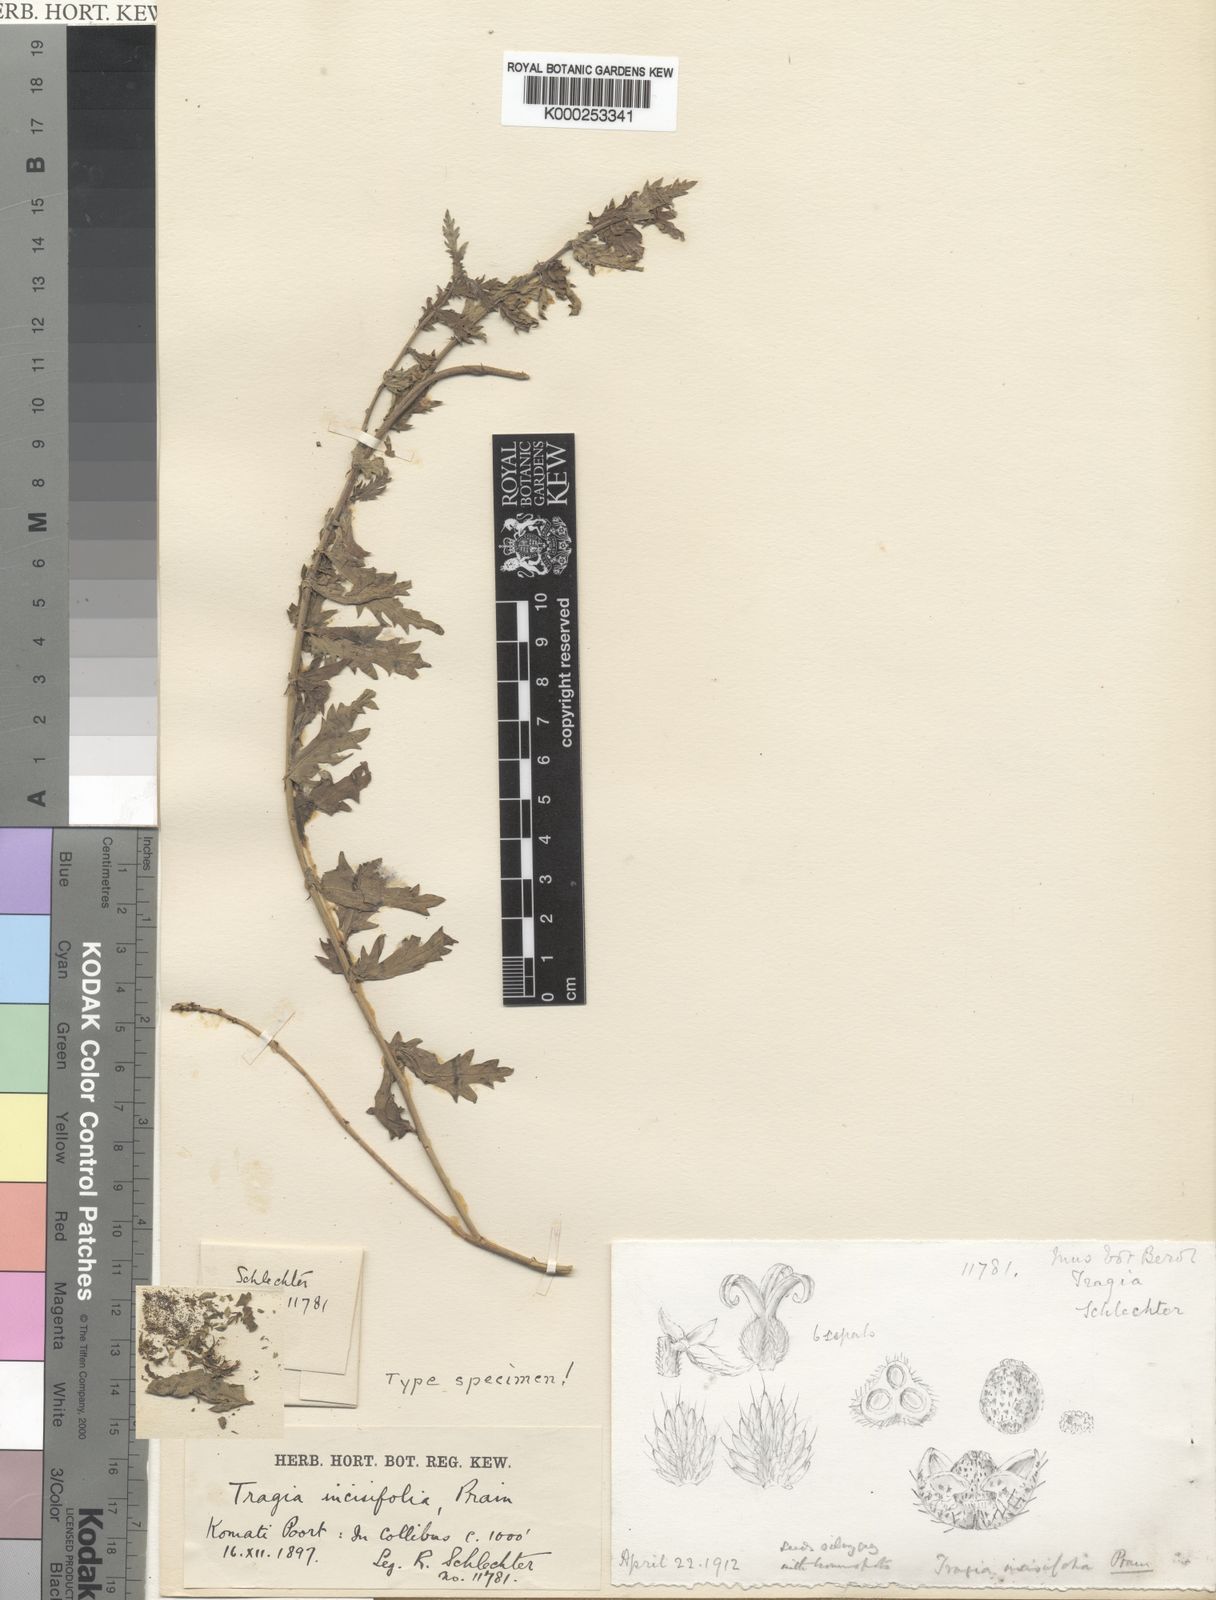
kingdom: Plantae
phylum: Tracheophyta
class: Magnoliopsida
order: Malpighiales
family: Euphorbiaceae
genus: Tragia
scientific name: Tragia incisifolia
